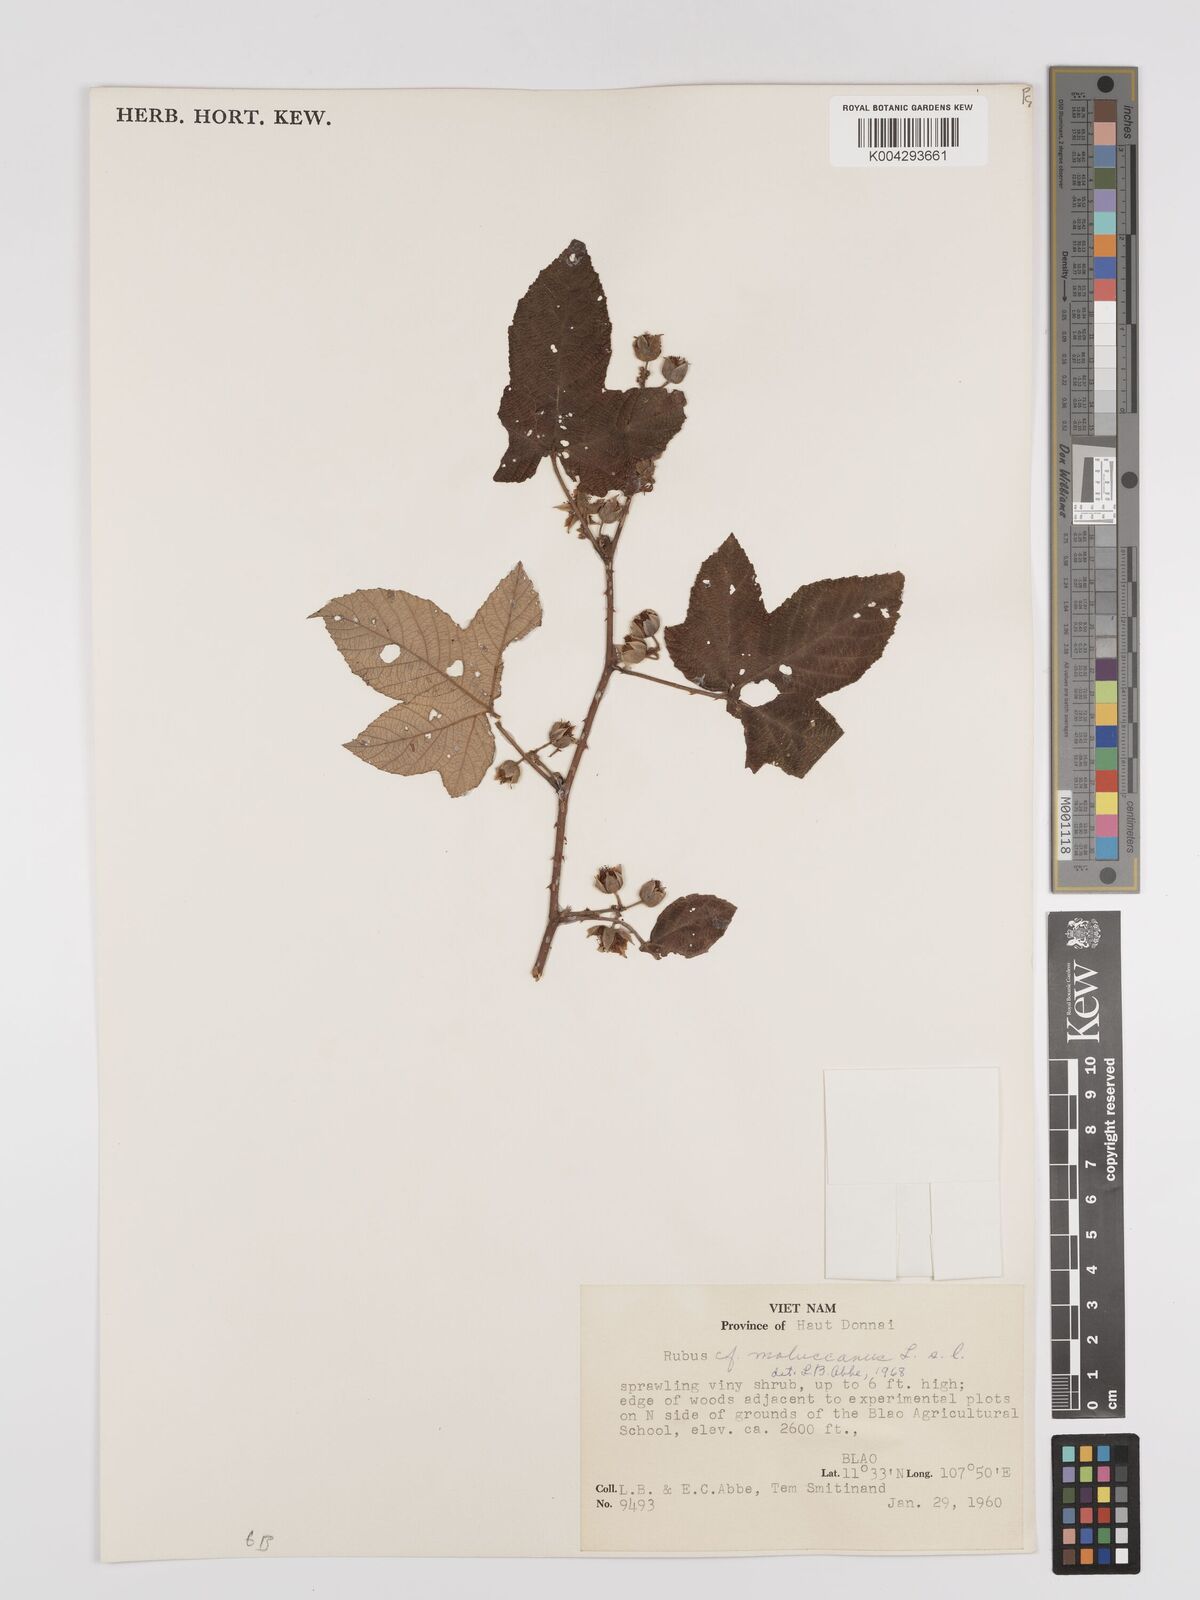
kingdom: Plantae
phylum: Tracheophyta
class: Magnoliopsida
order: Rosales
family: Rosaceae
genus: Rubus
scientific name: Rubus chevalieri
